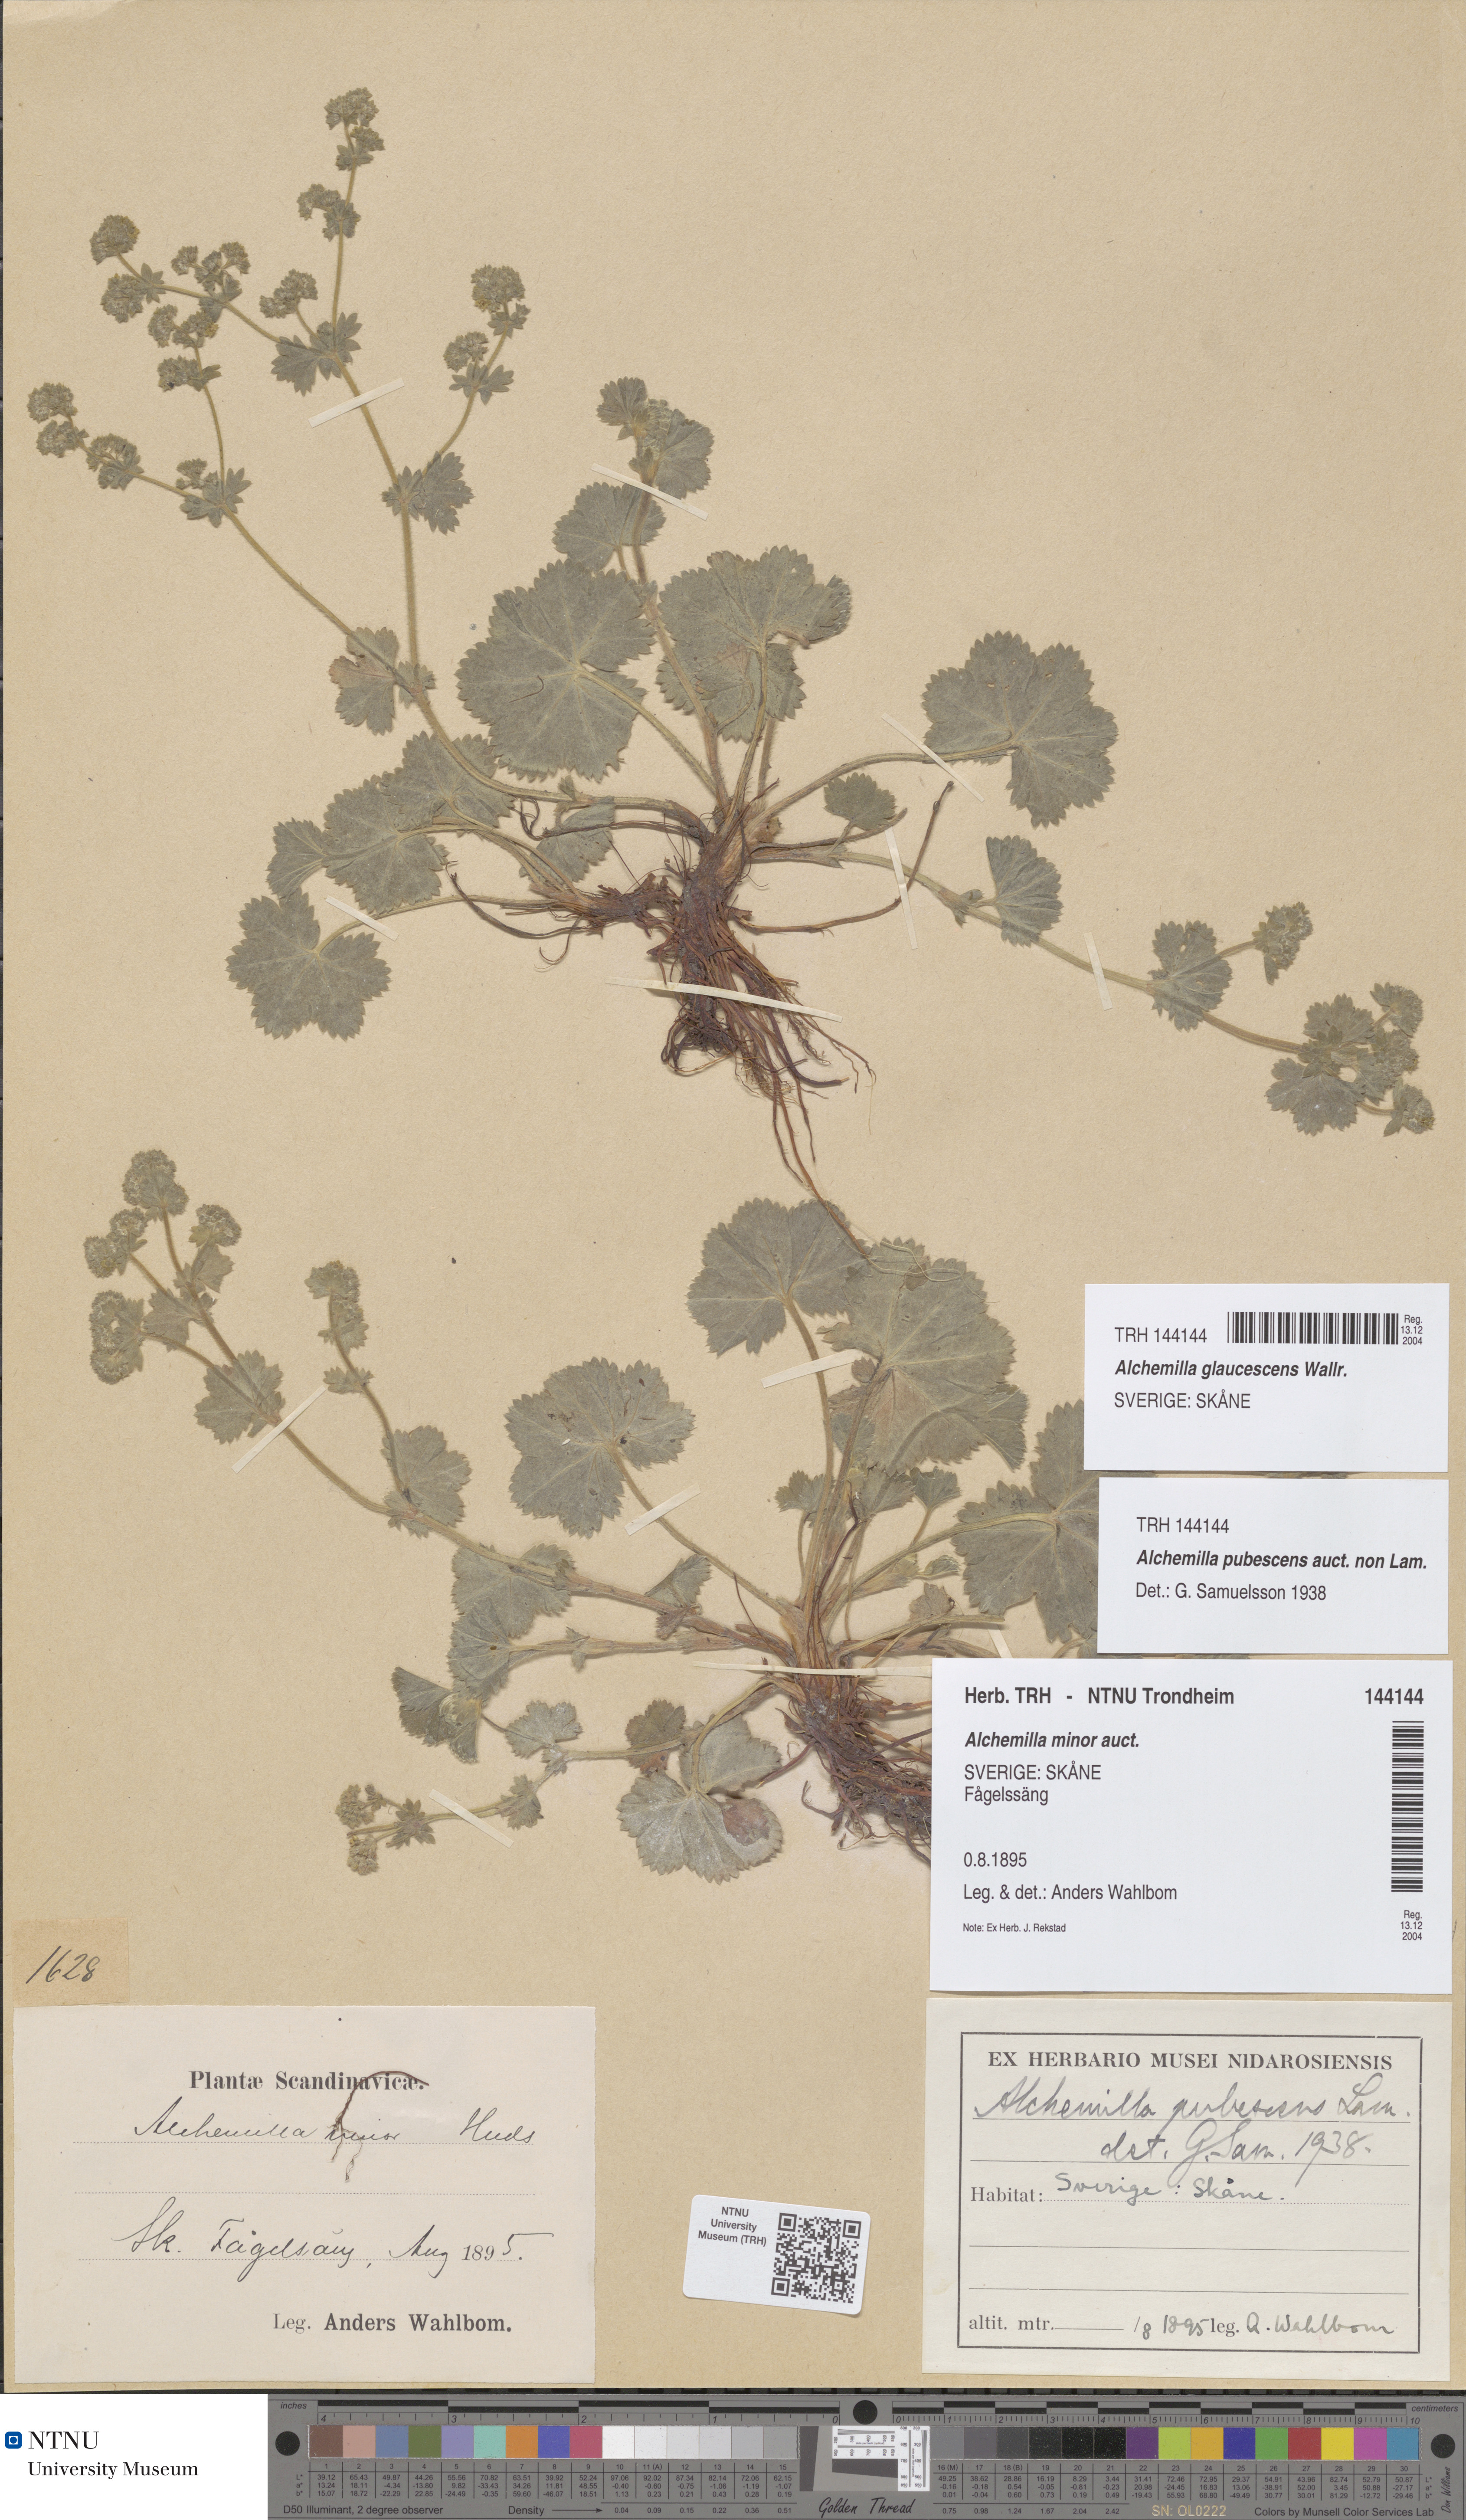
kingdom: Plantae
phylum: Tracheophyta
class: Magnoliopsida
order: Rosales
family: Rosaceae
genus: Alchemilla
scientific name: Alchemilla glaucescens
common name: Silky lady's mantle
